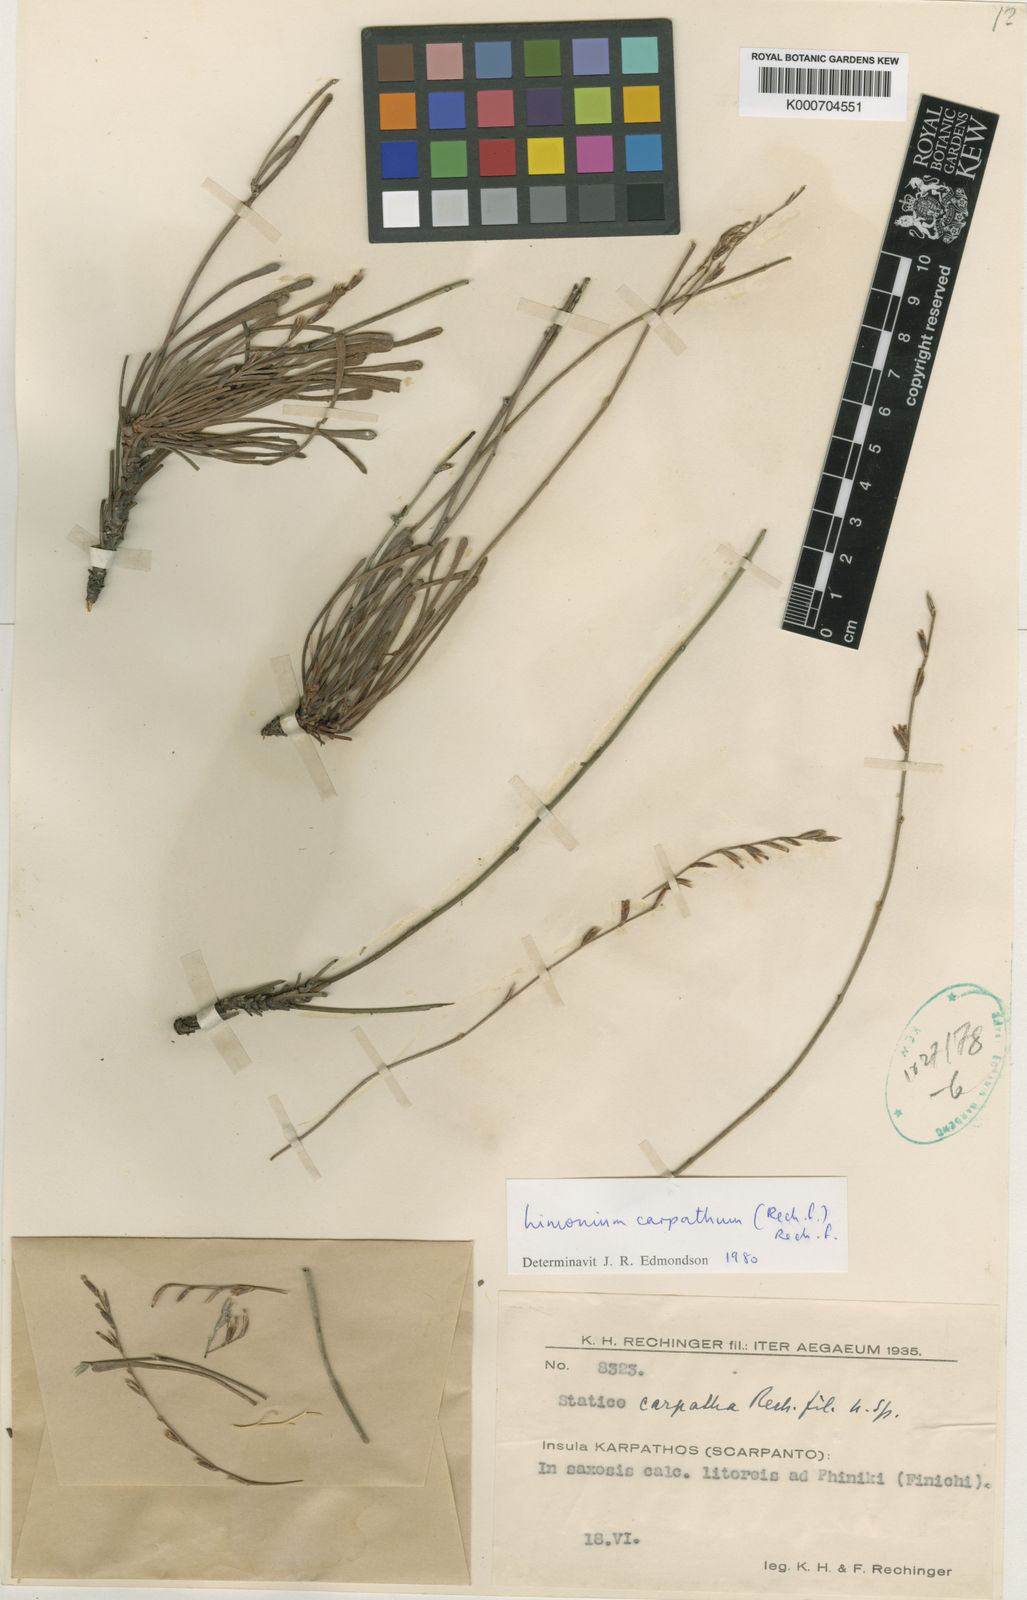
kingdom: Plantae
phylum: Tracheophyta
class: Magnoliopsida
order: Caryophyllales
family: Plumbaginaceae
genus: Limonium
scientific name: Limonium carpathum
